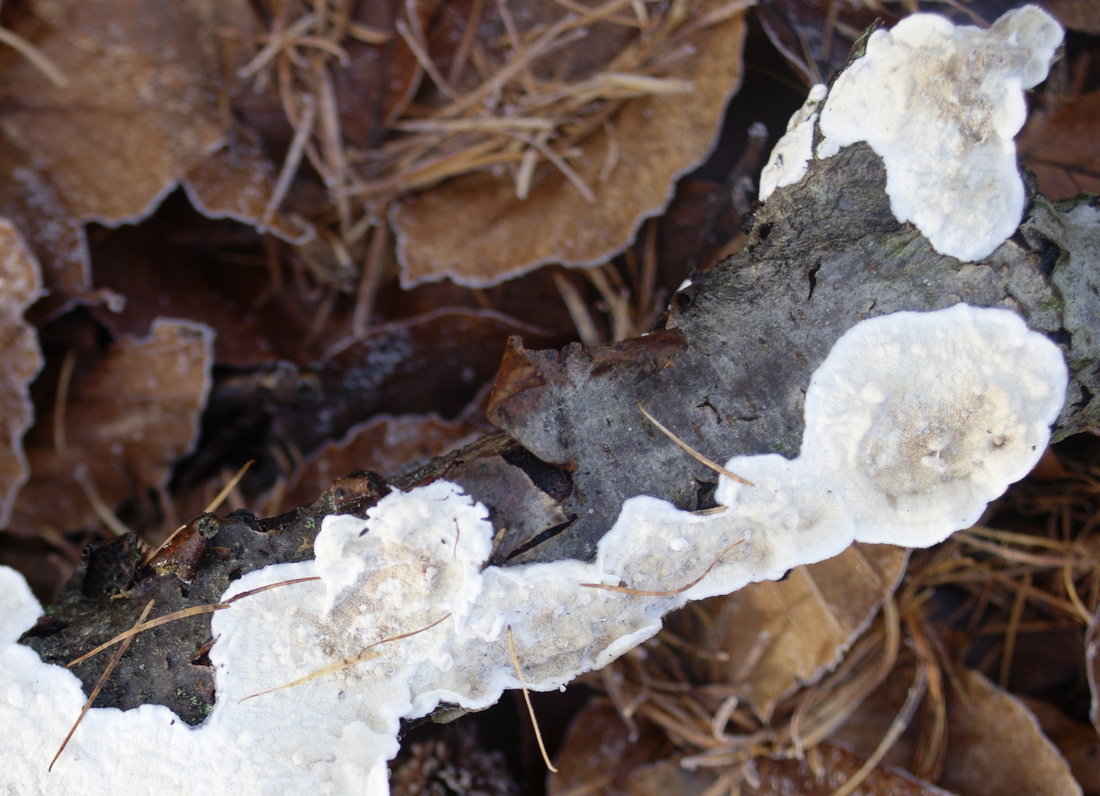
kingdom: Fungi
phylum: Basidiomycota
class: Agaricomycetes
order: Polyporales
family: Irpicaceae
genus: Byssomerulius
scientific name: Byssomerulius corium
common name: læder-åresvamp
